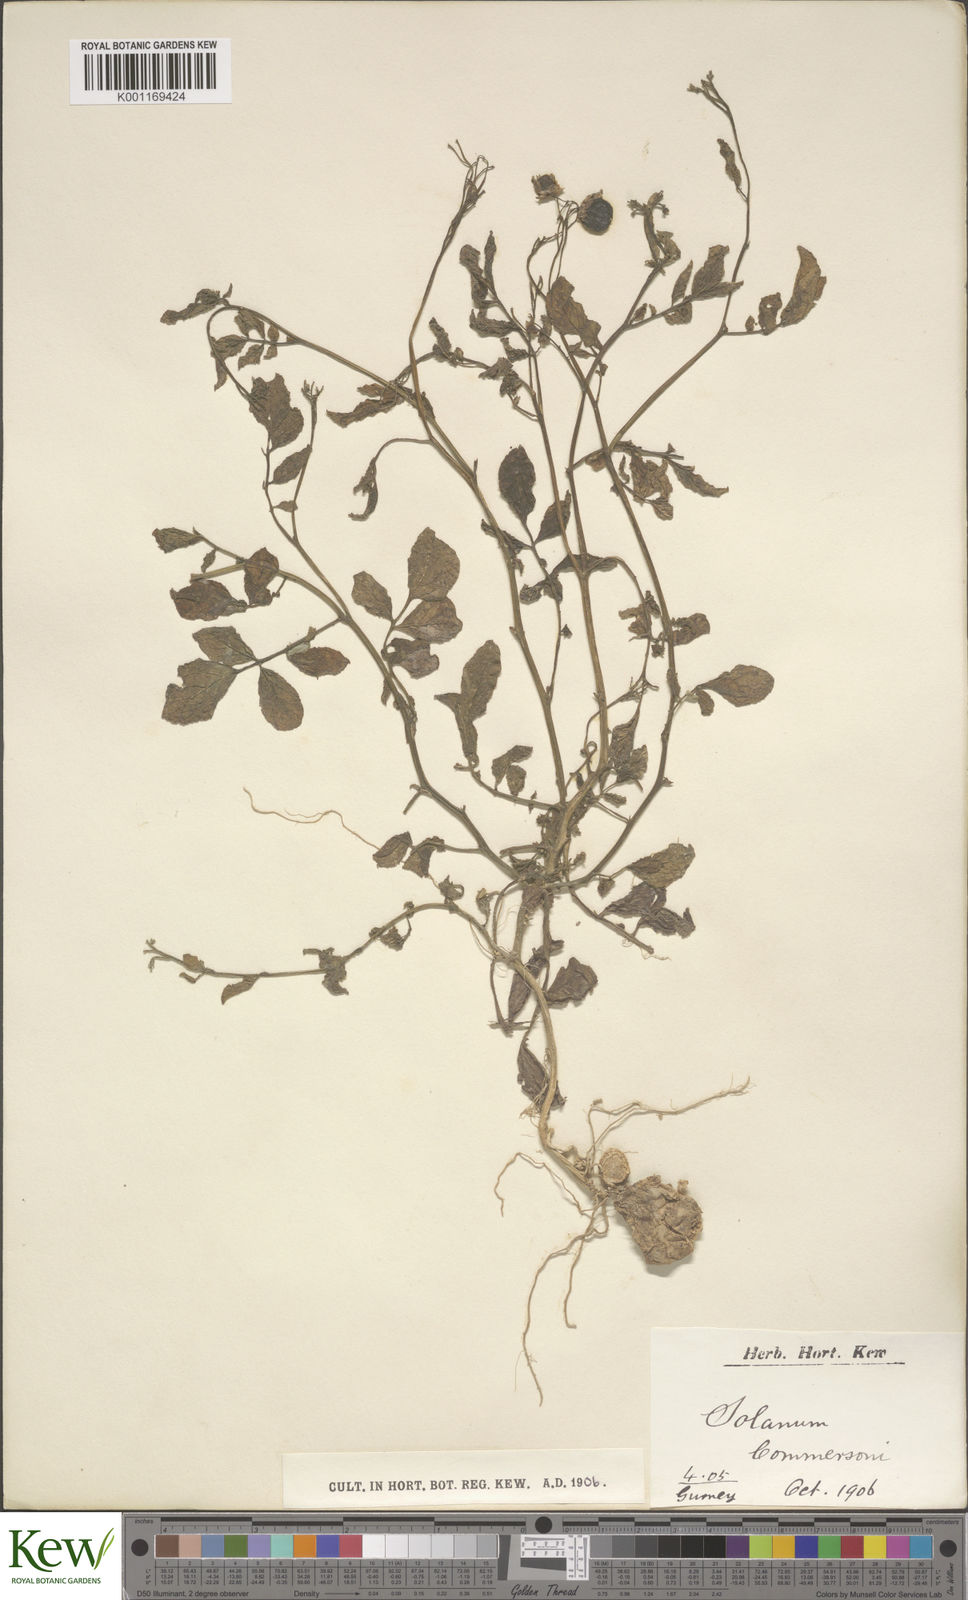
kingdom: Plantae
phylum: Tracheophyta
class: Magnoliopsida
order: Solanales
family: Solanaceae
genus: Solanum
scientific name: Solanum commersonii
